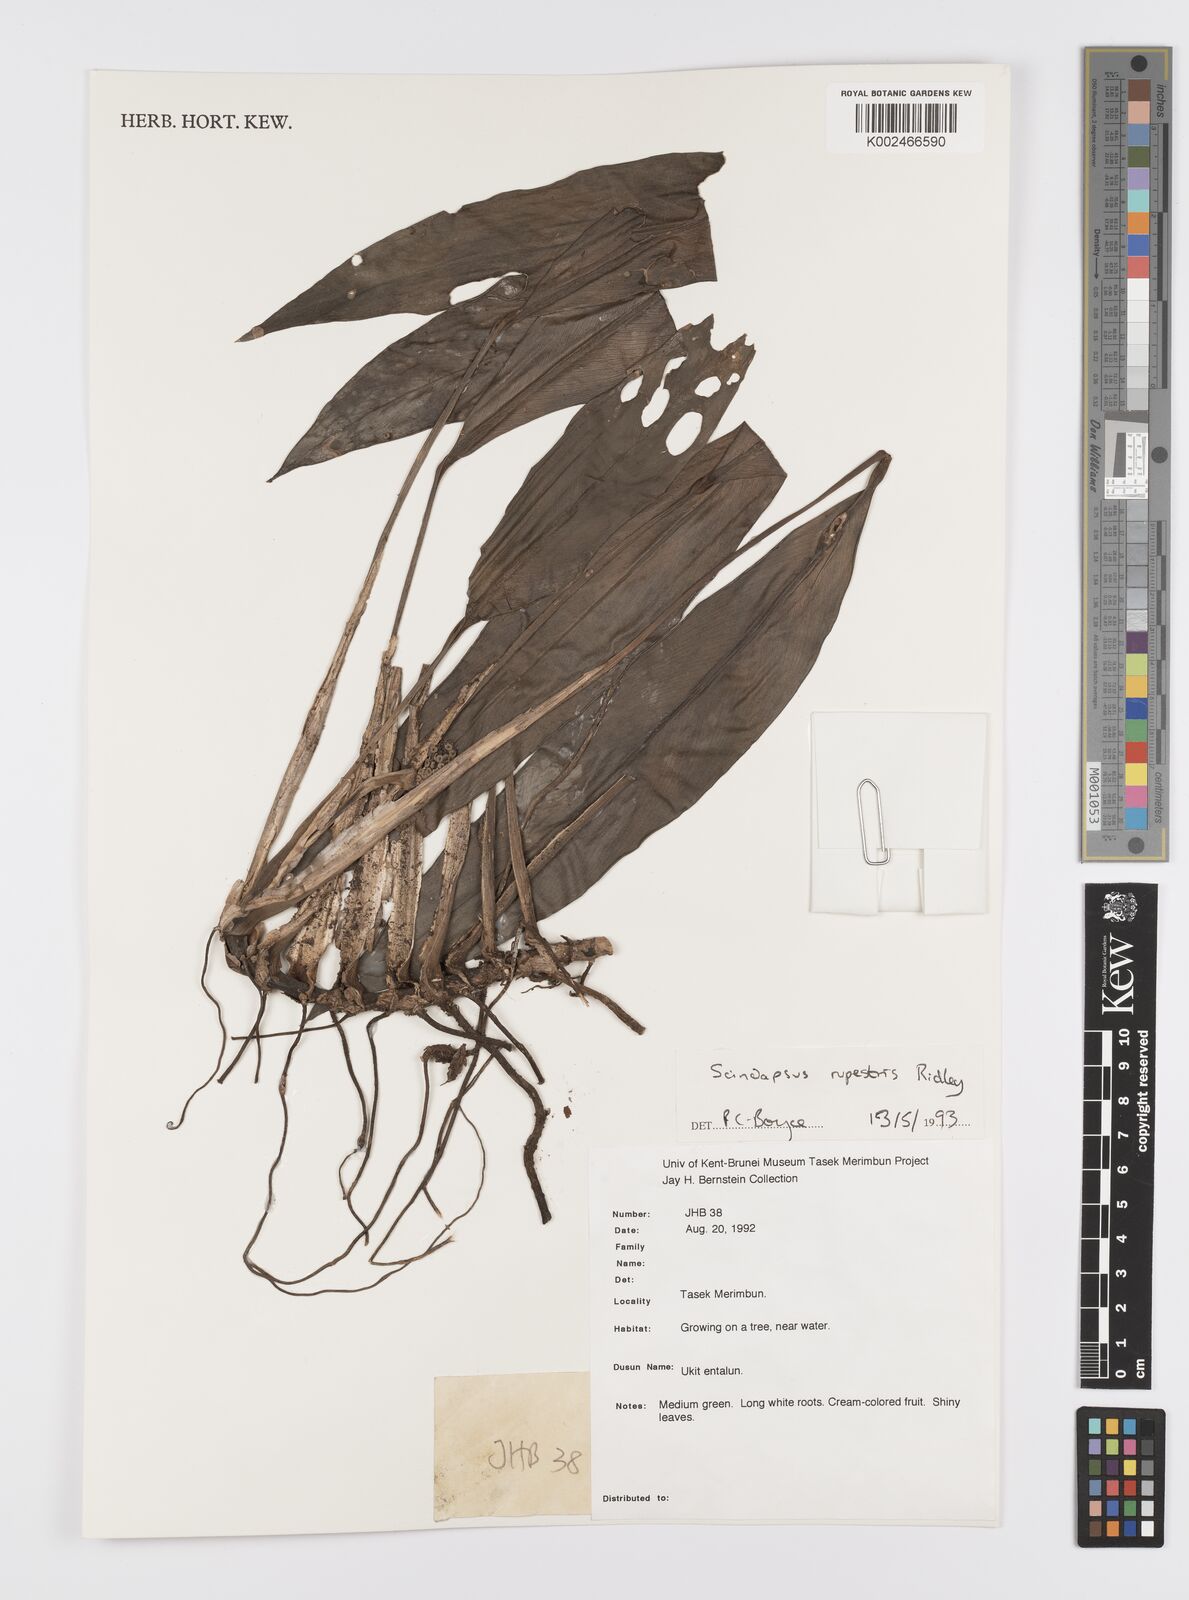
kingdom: Plantae
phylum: Tracheophyta
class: Liliopsida
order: Alismatales
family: Araceae
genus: Scindapsus
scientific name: Scindapsus sumatranus
